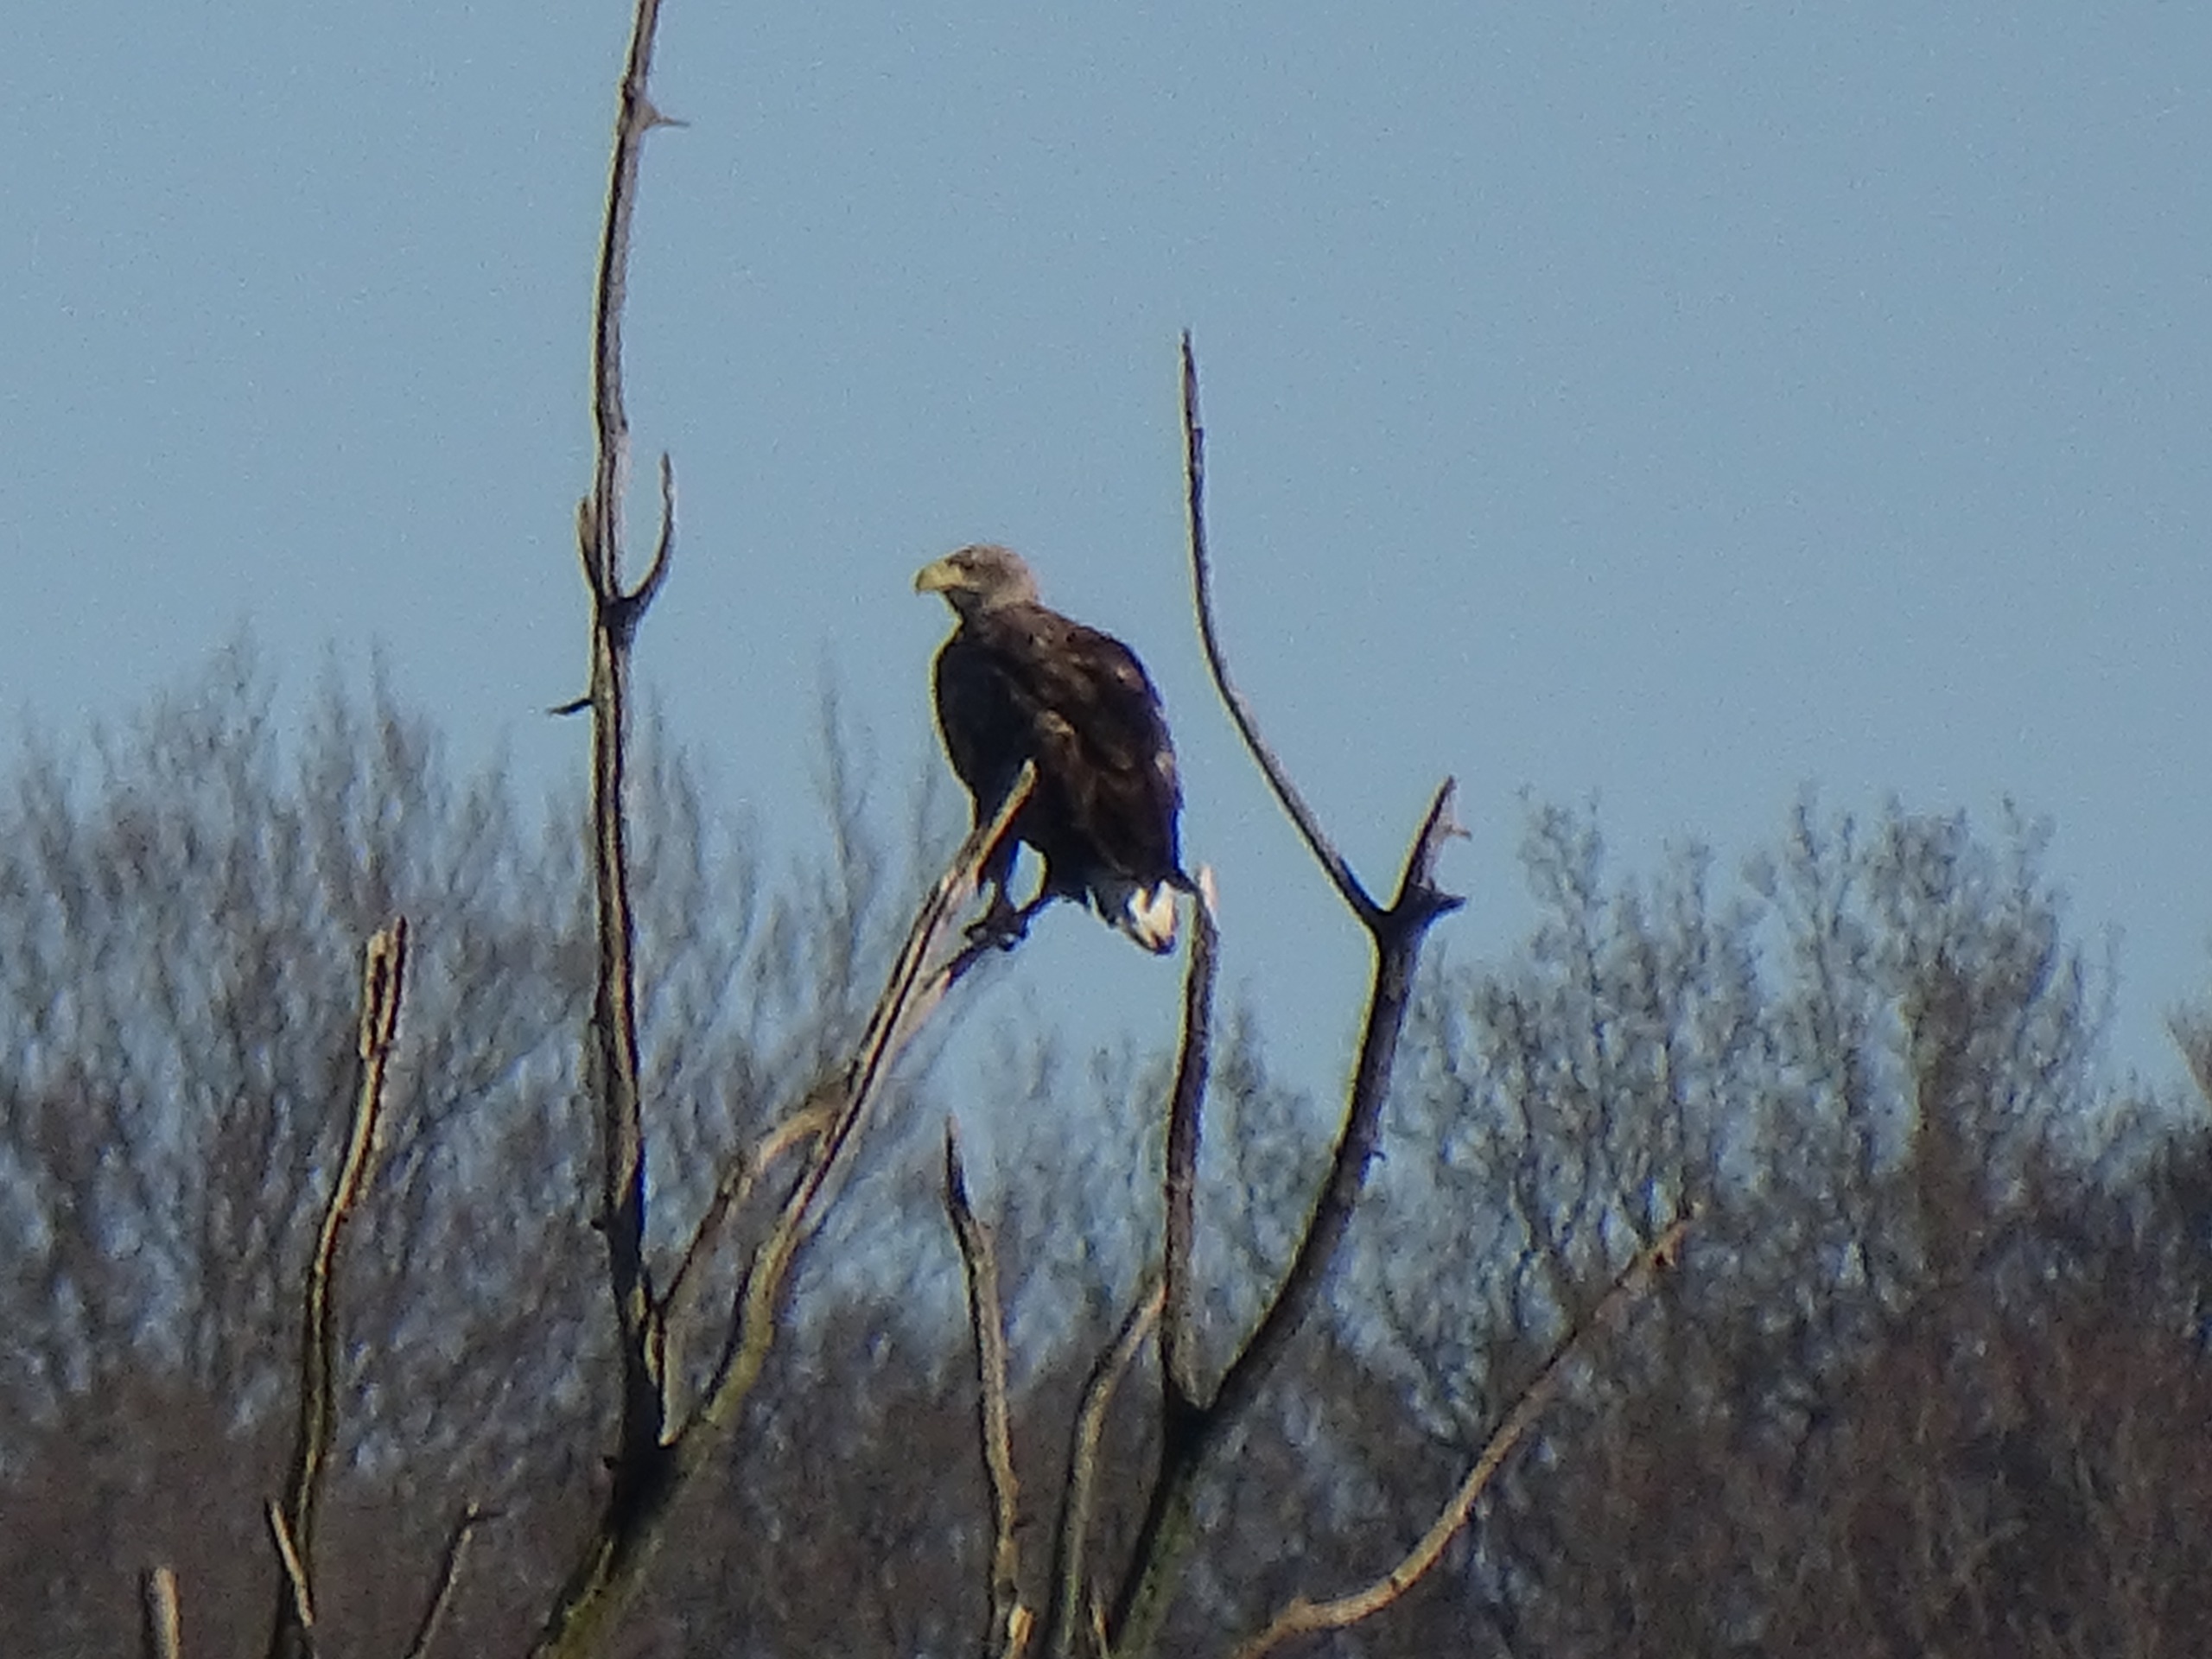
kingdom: Animalia
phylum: Chordata
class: Aves
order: Accipitriformes
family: Accipitridae
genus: Haliaeetus
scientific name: Haliaeetus albicilla
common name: Havørn
